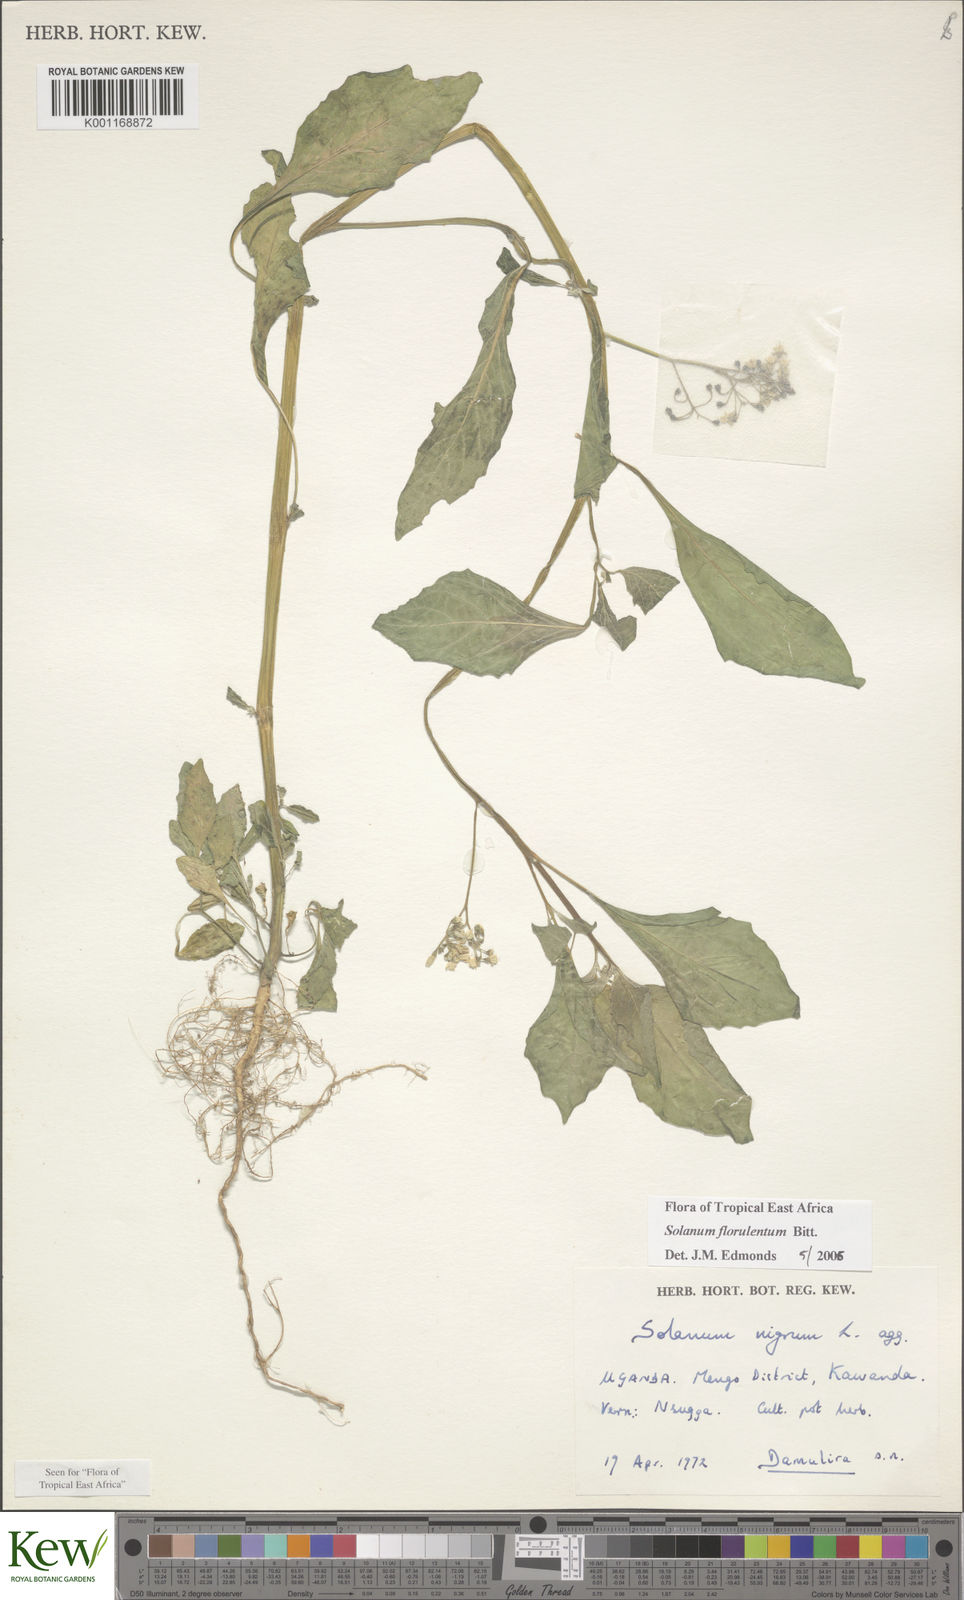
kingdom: Plantae
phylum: Tracheophyta
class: Magnoliopsida
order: Solanales
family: Solanaceae
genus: Solanum
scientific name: Solanum tarderemotum
